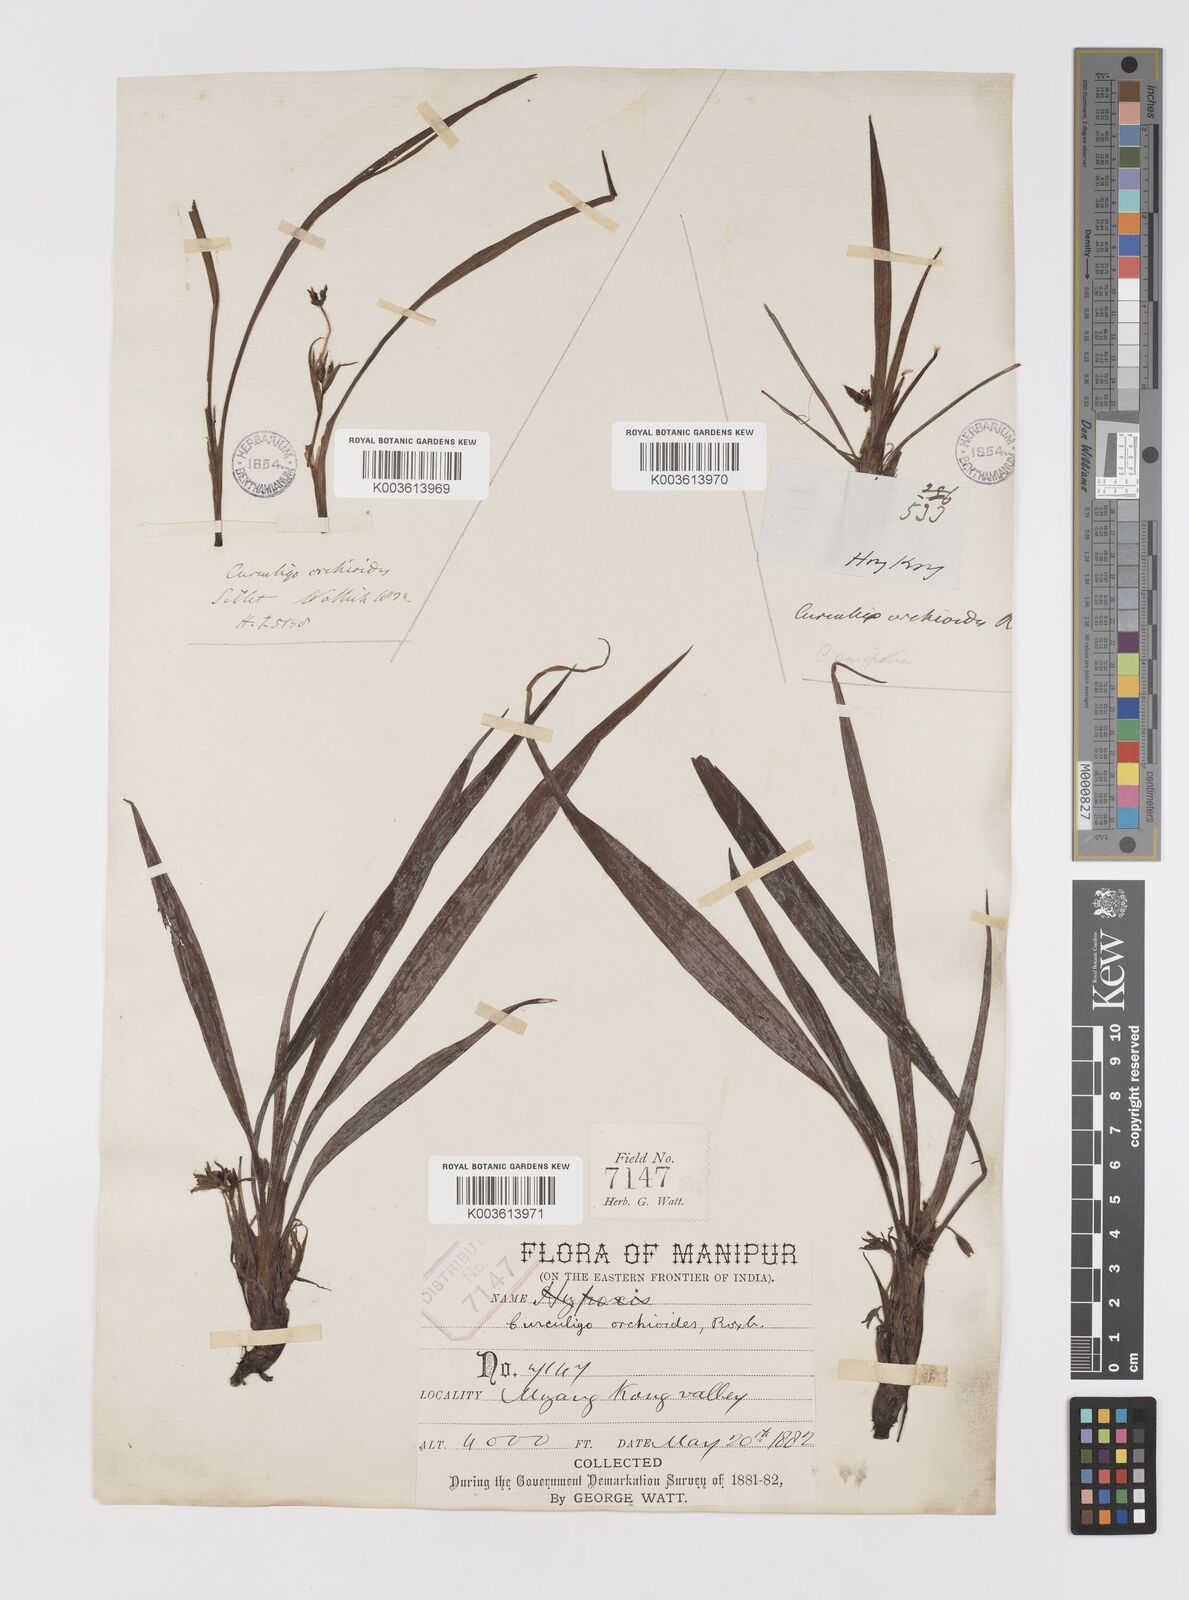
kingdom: Plantae
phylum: Tracheophyta
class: Liliopsida
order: Asparagales
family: Hypoxidaceae
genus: Curculigo
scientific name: Curculigo orchioides
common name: Golden eye-grass
